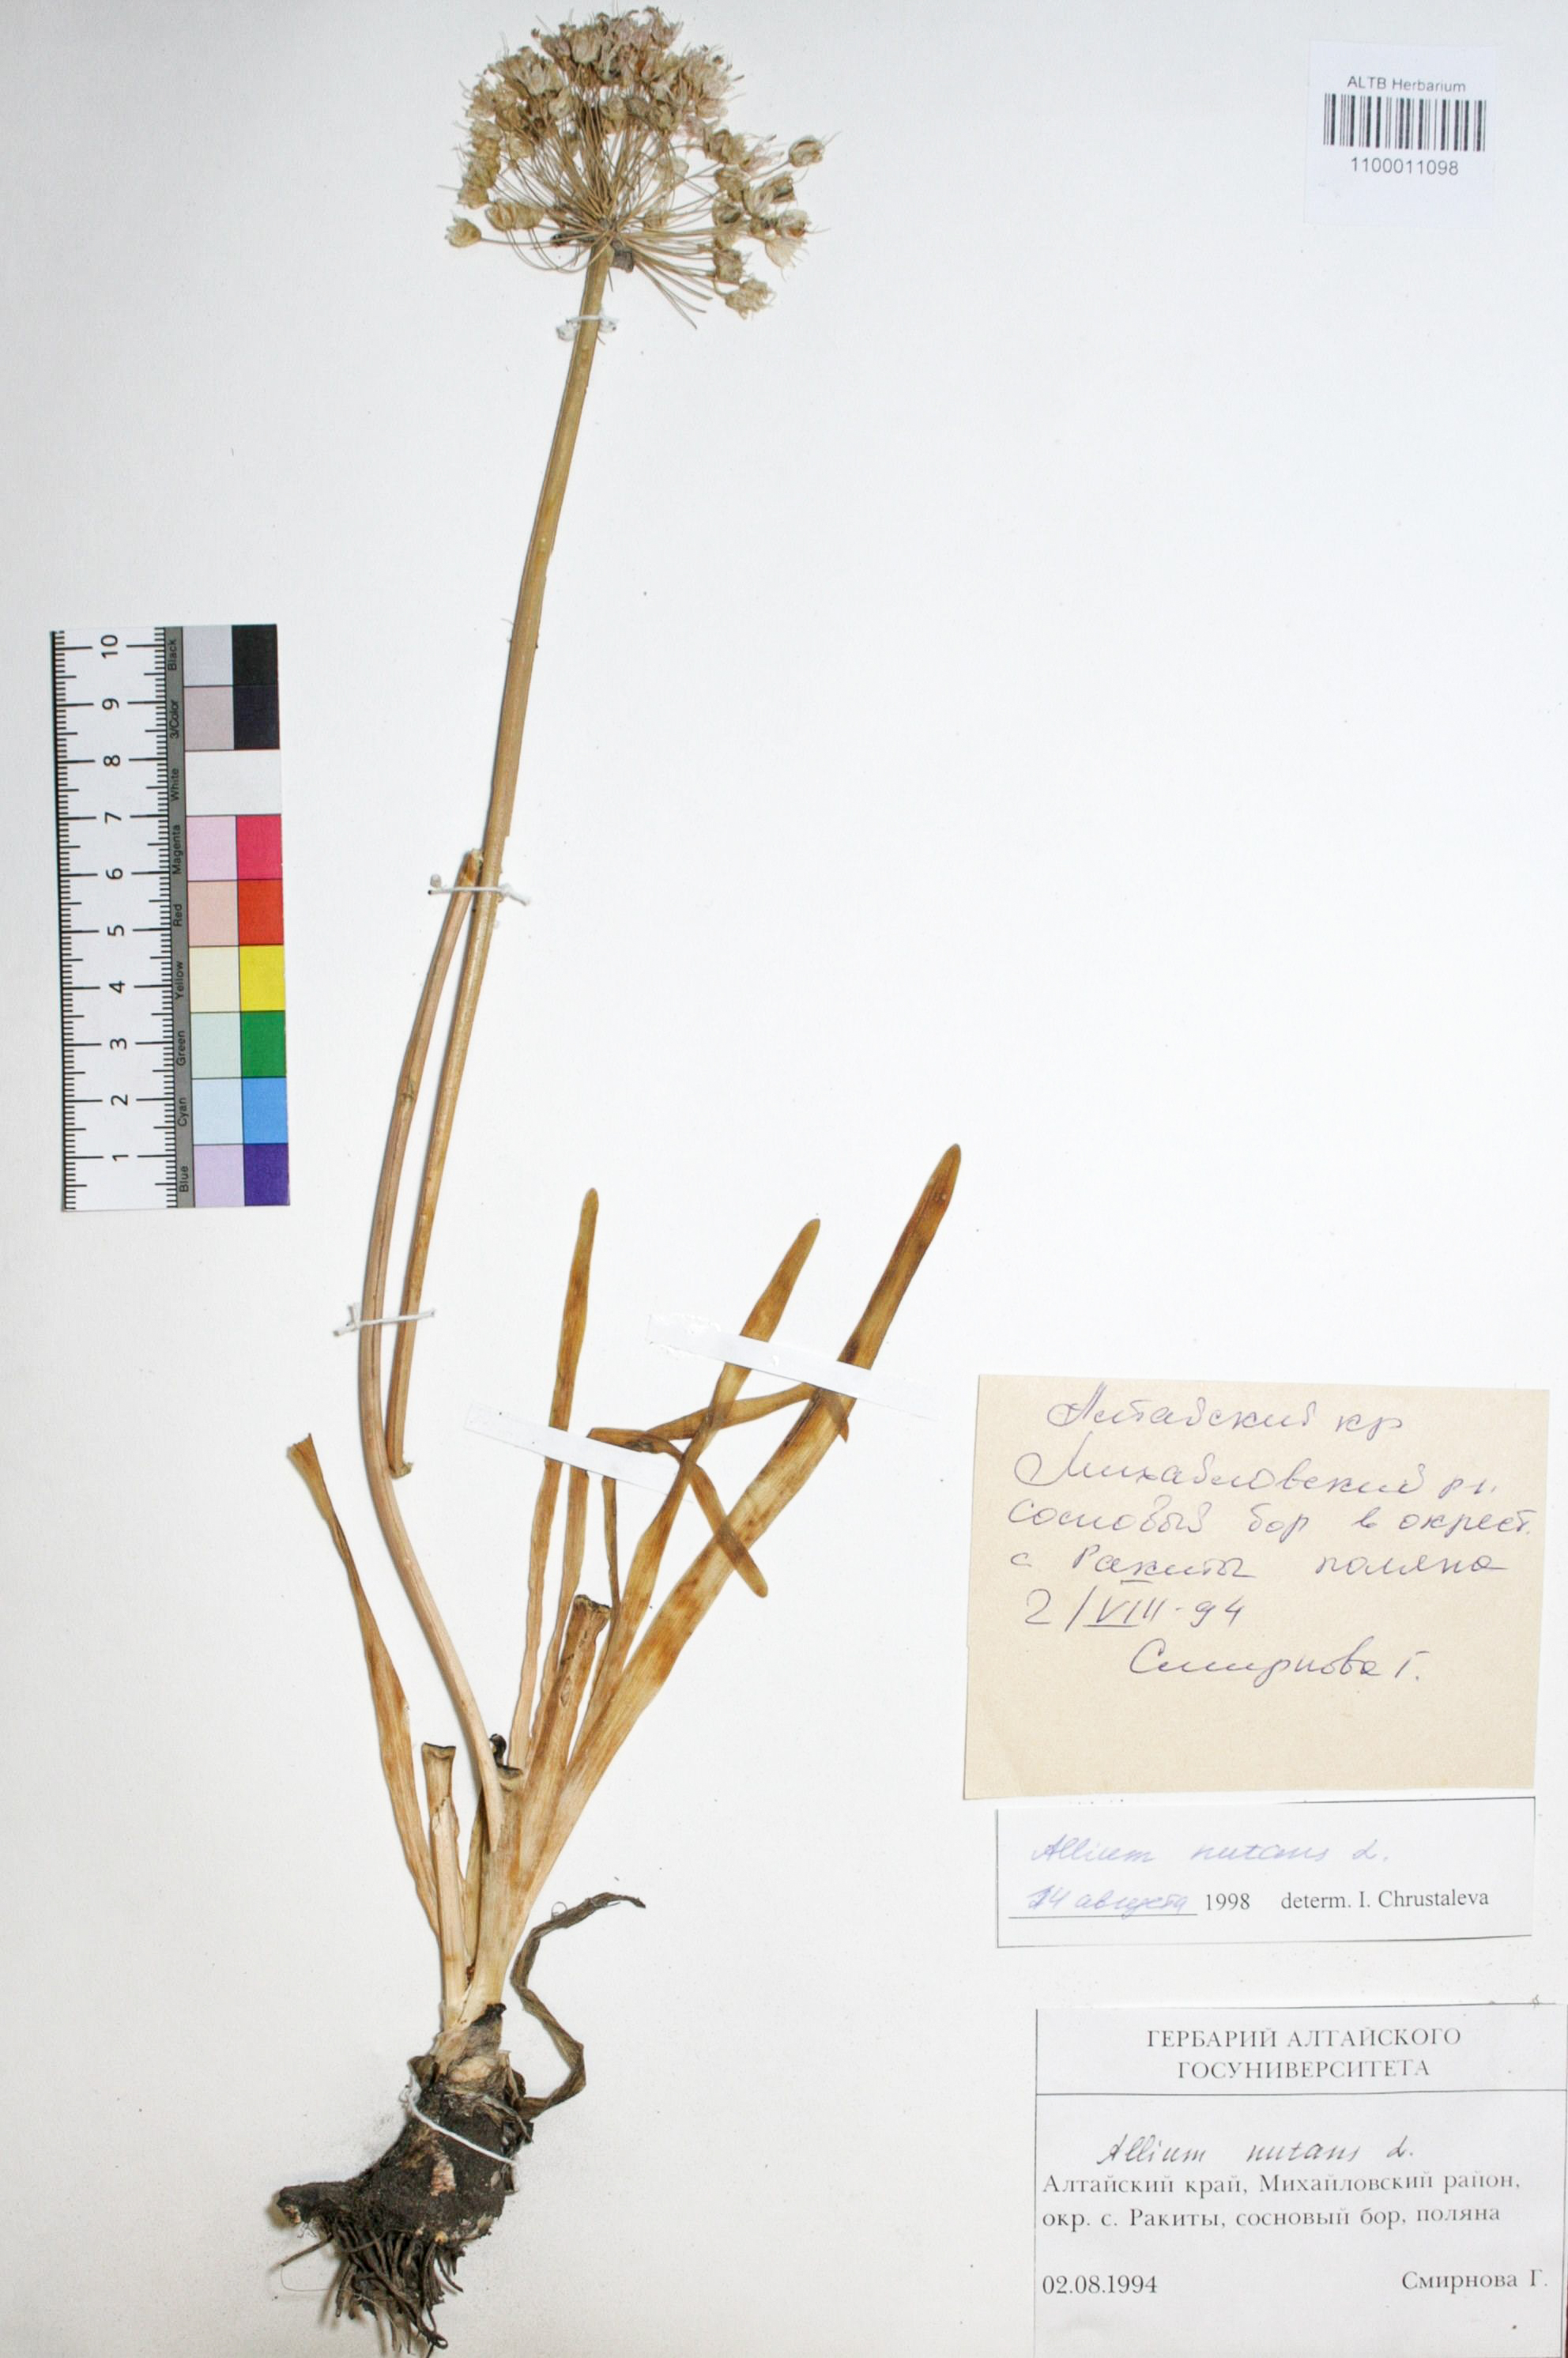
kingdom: Plantae
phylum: Tracheophyta
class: Liliopsida
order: Asparagales
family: Amaryllidaceae
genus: Allium
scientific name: Allium nutans
